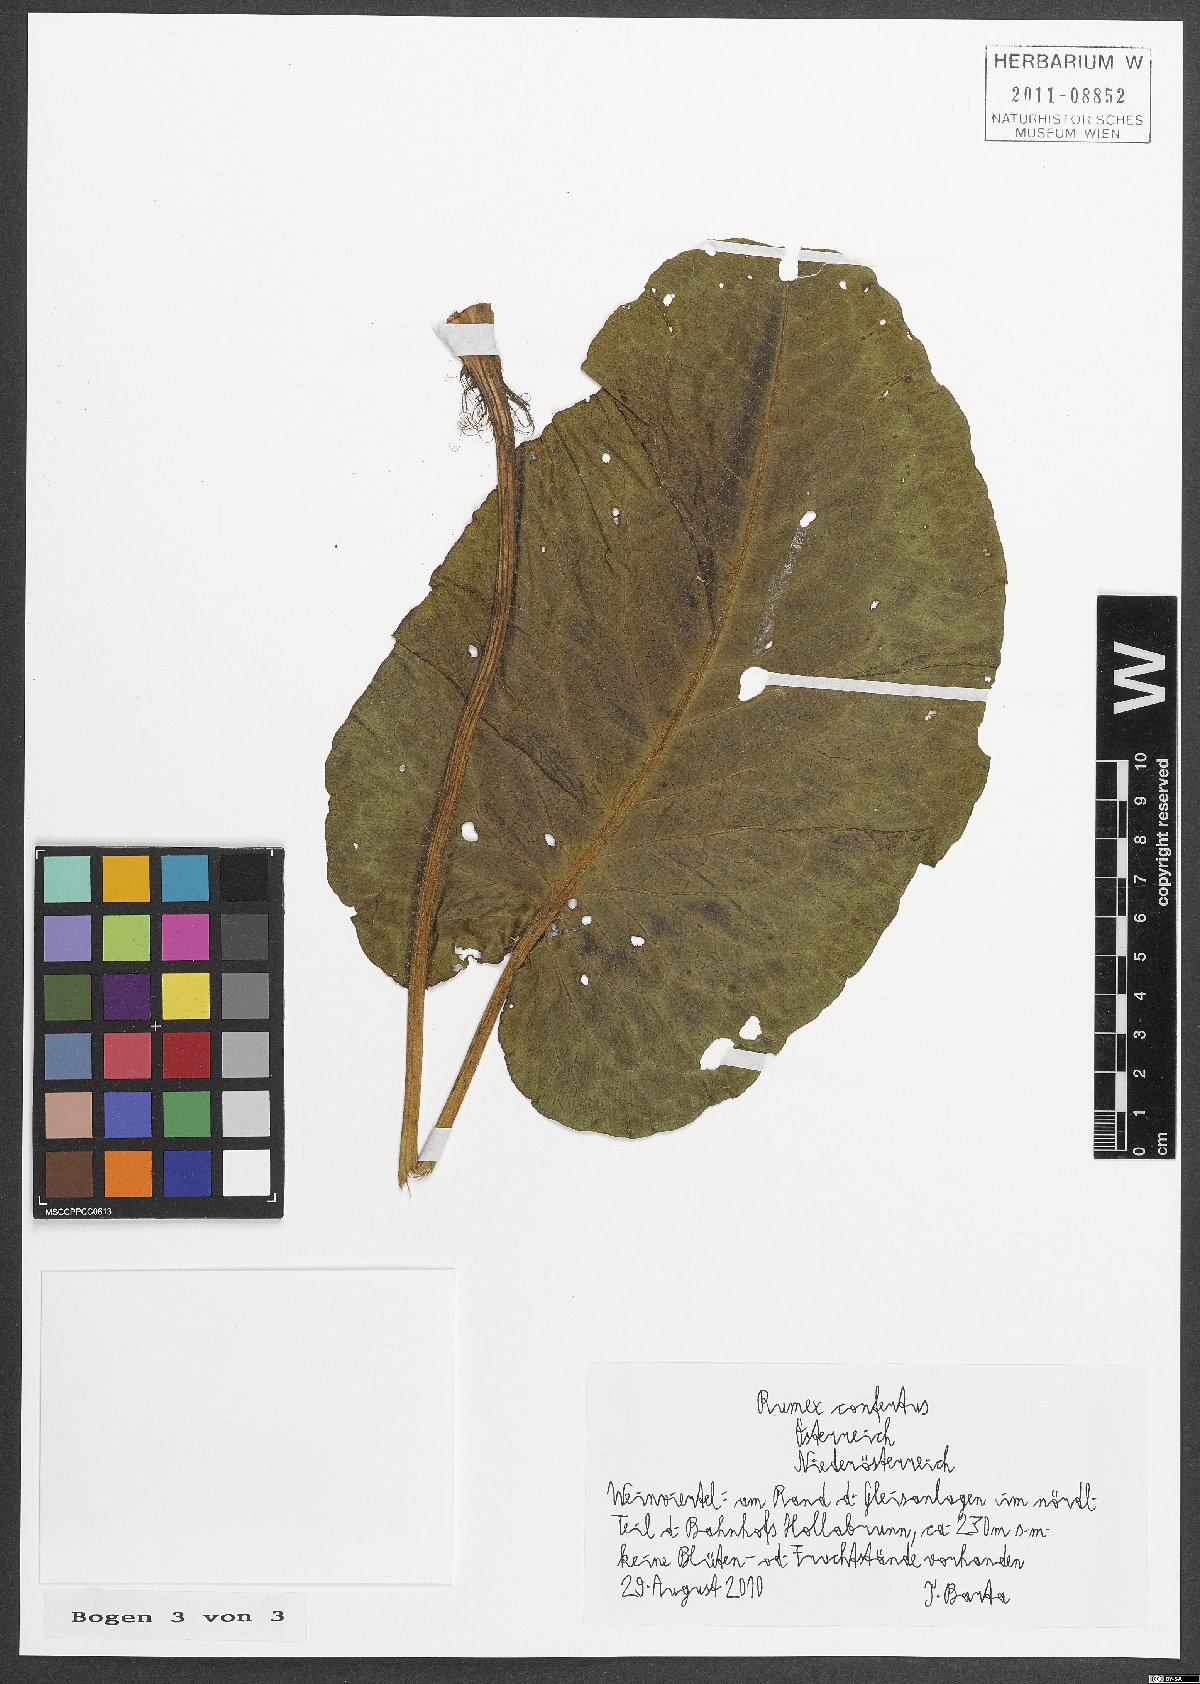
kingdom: Plantae
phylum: Tracheophyta
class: Magnoliopsida
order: Caryophyllales
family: Polygonaceae
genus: Rumex
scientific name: Rumex confertus
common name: Russian dock
